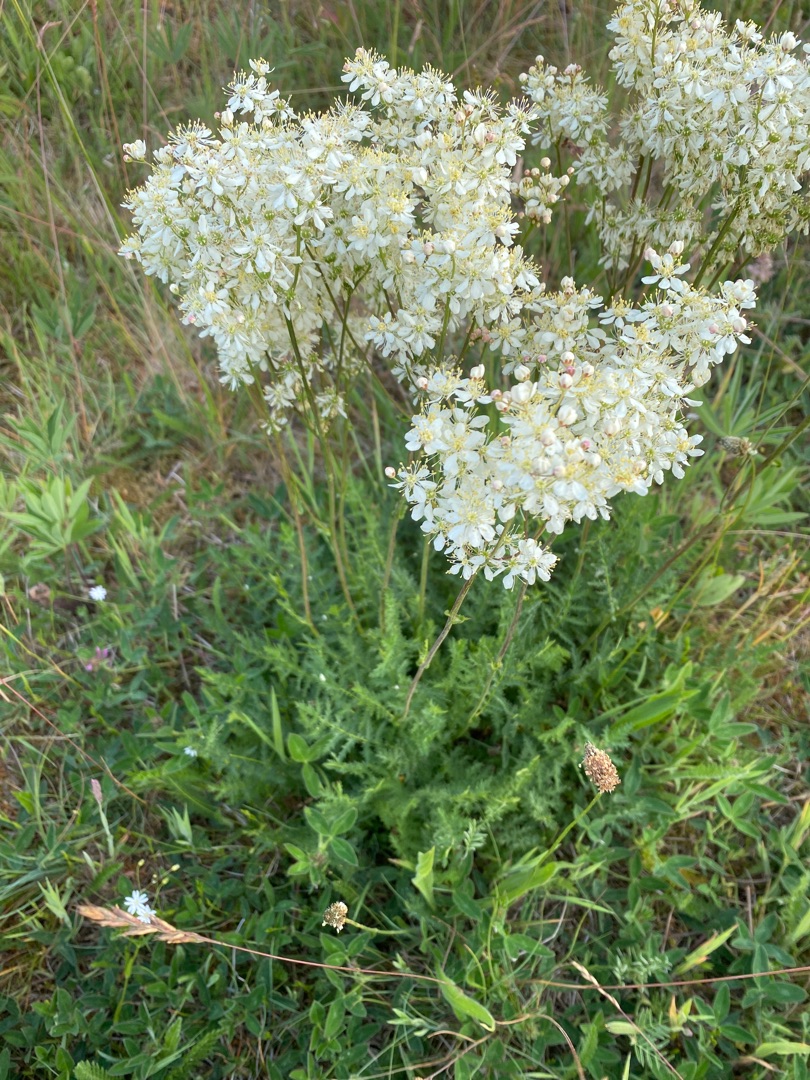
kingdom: Plantae
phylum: Tracheophyta
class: Magnoliopsida
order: Rosales
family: Rosaceae
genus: Filipendula
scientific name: Filipendula vulgaris
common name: Knoldet mjødurt
